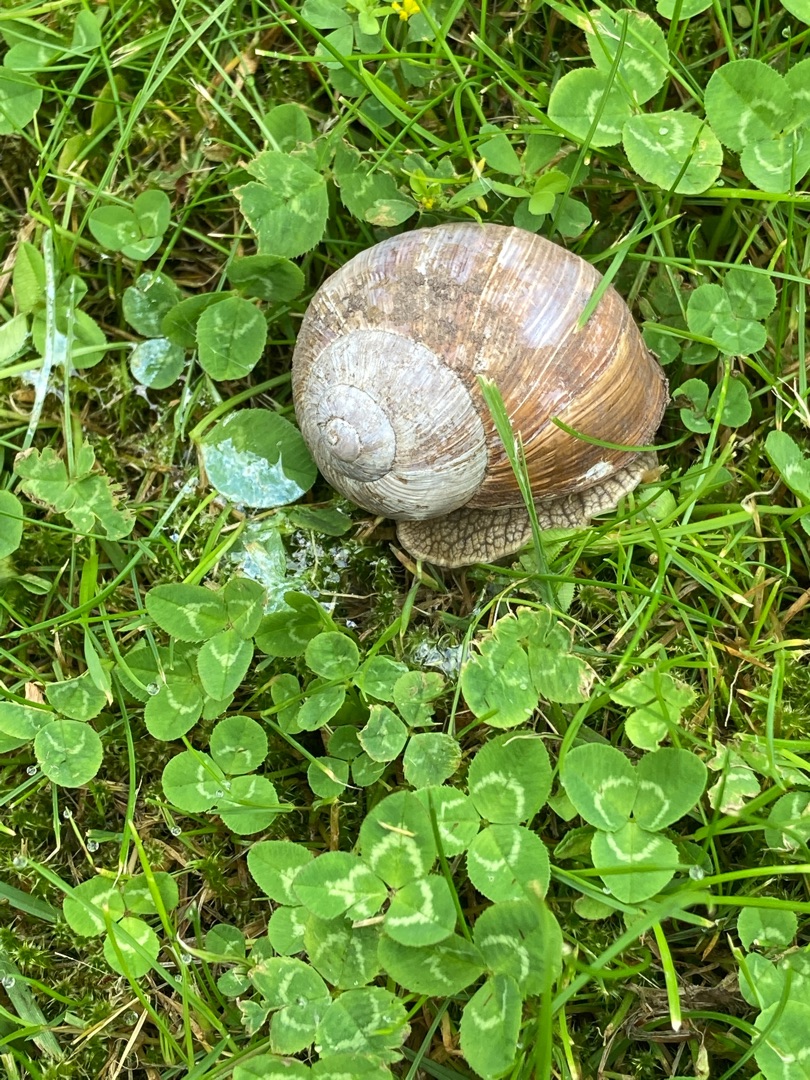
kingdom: Animalia
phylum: Mollusca
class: Gastropoda
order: Stylommatophora
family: Helicidae
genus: Helix
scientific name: Helix pomatia
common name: Vinbjergsnegl
